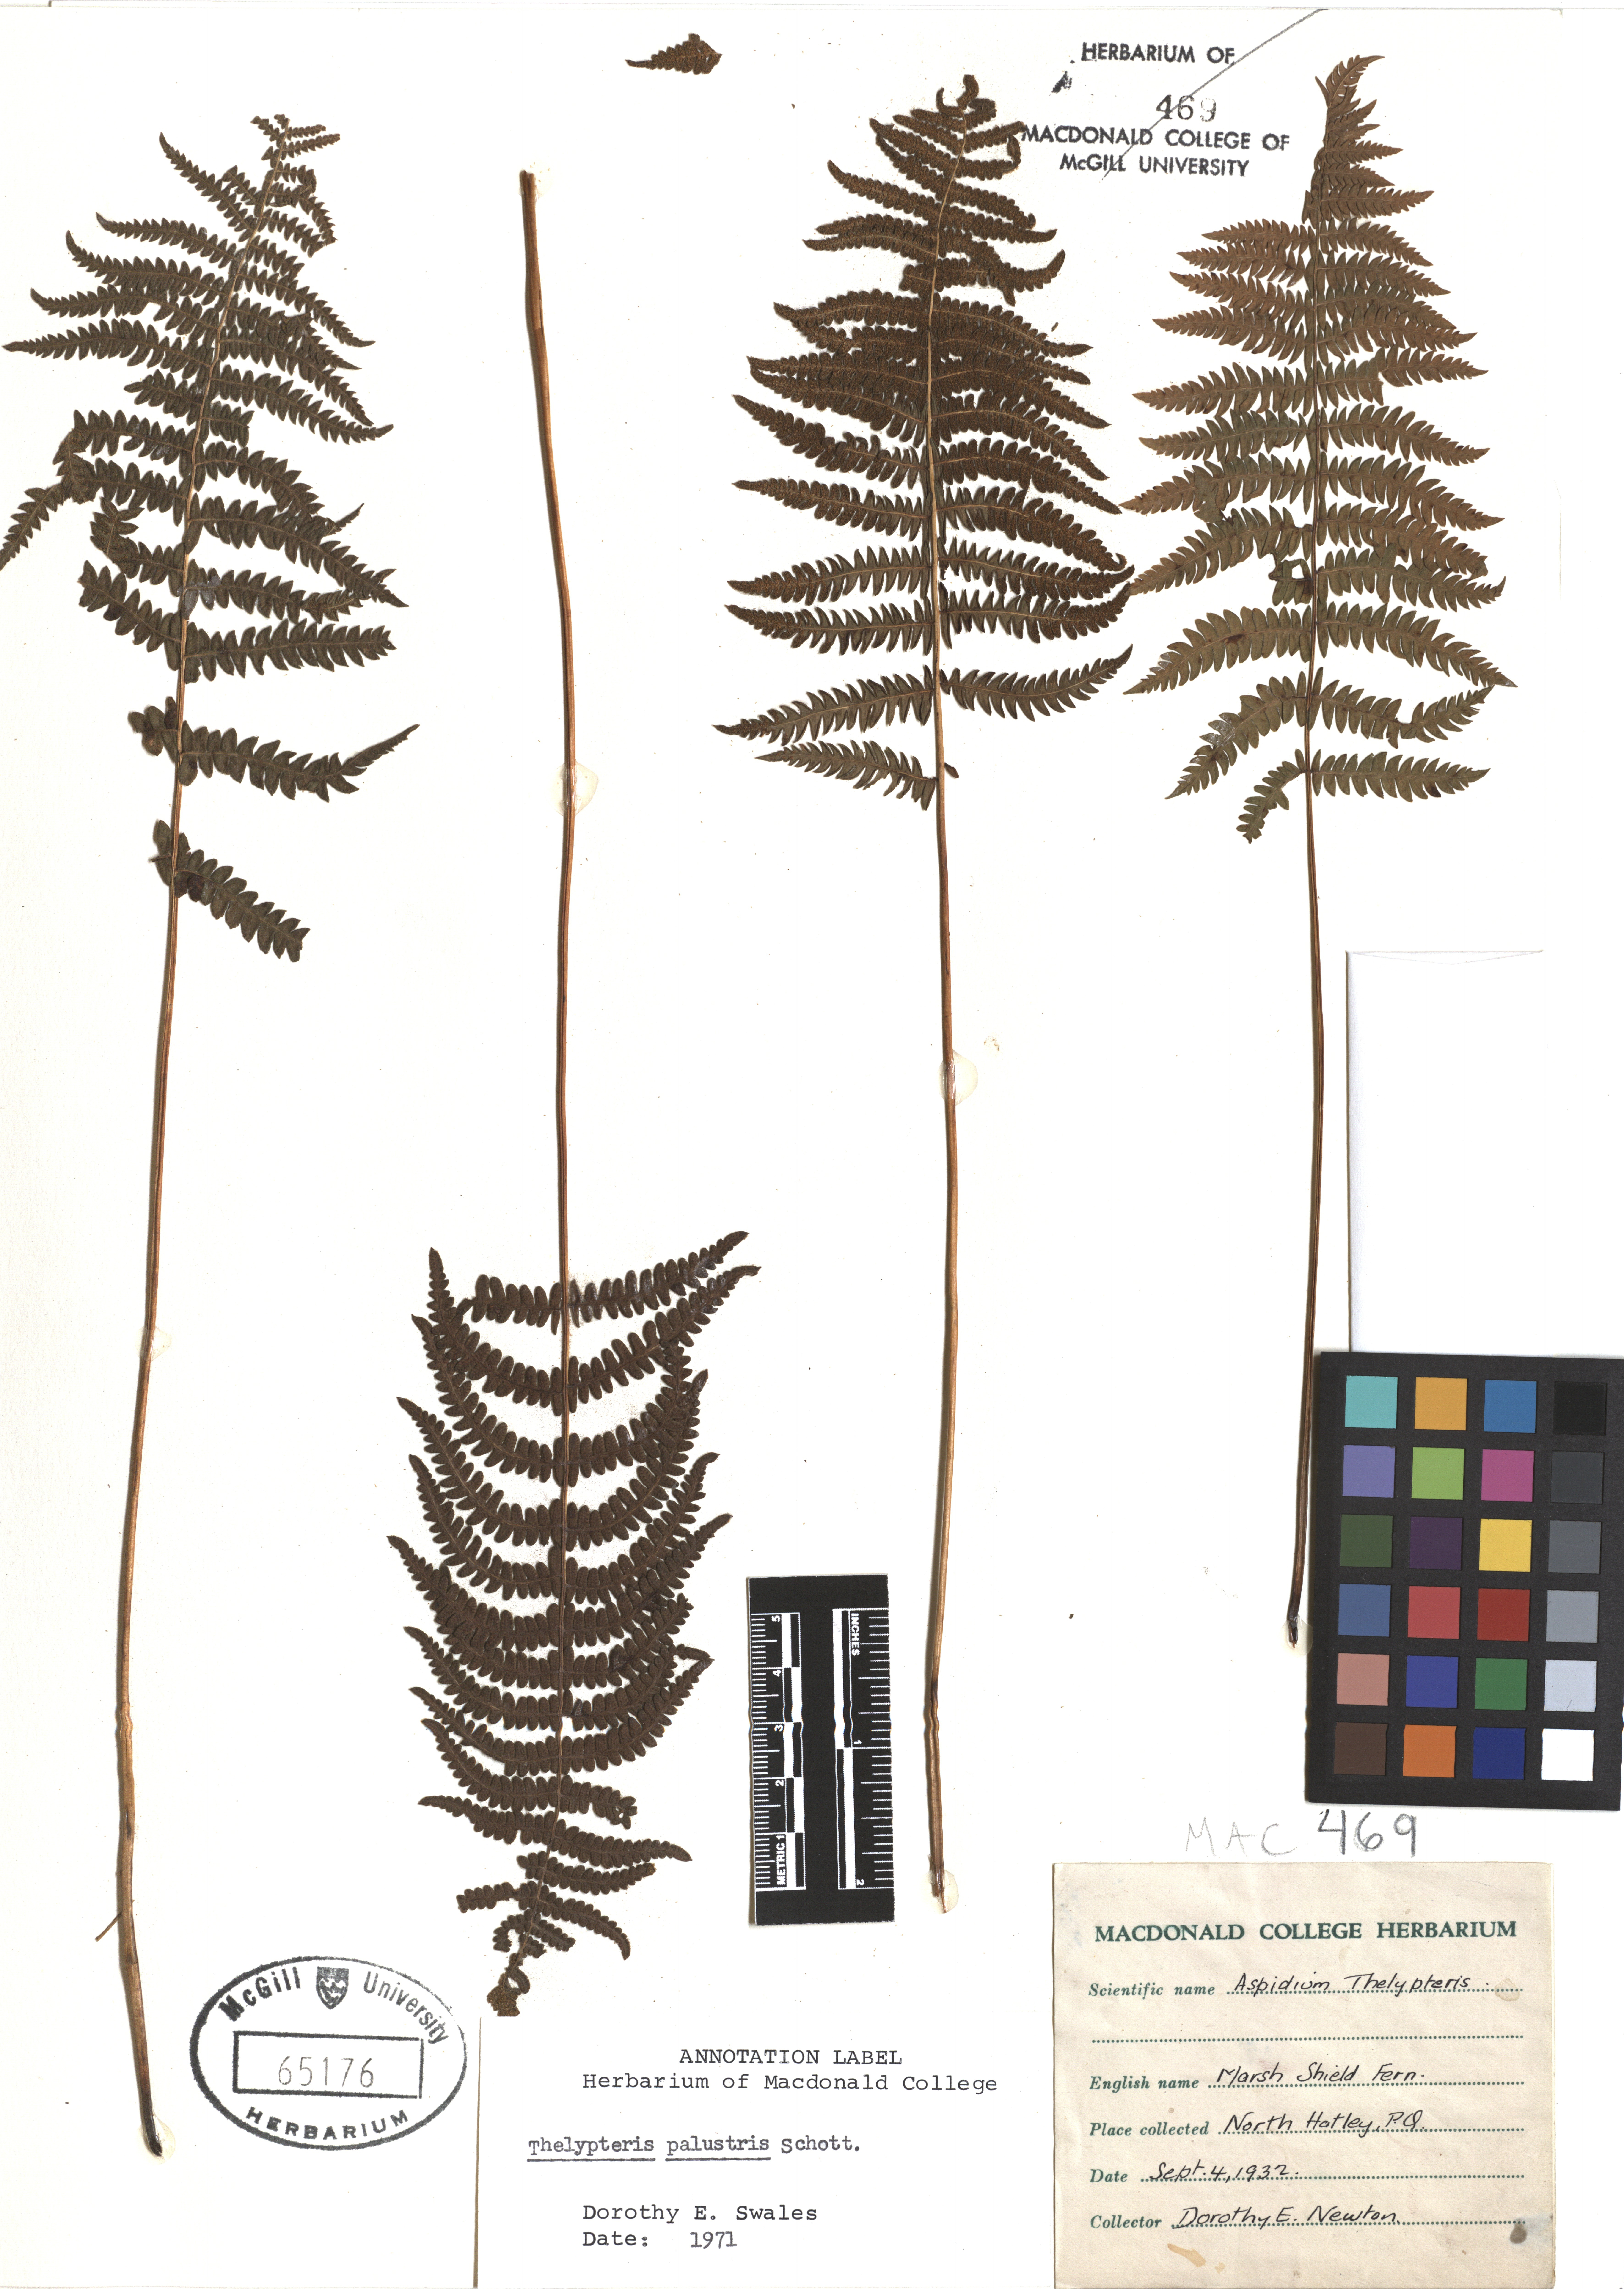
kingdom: Plantae
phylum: Tracheophyta
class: Polypodiopsida
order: Polypodiales
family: Thelypteridaceae
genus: Thelypteris
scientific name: Thelypteris palustris
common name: Marsh fern
